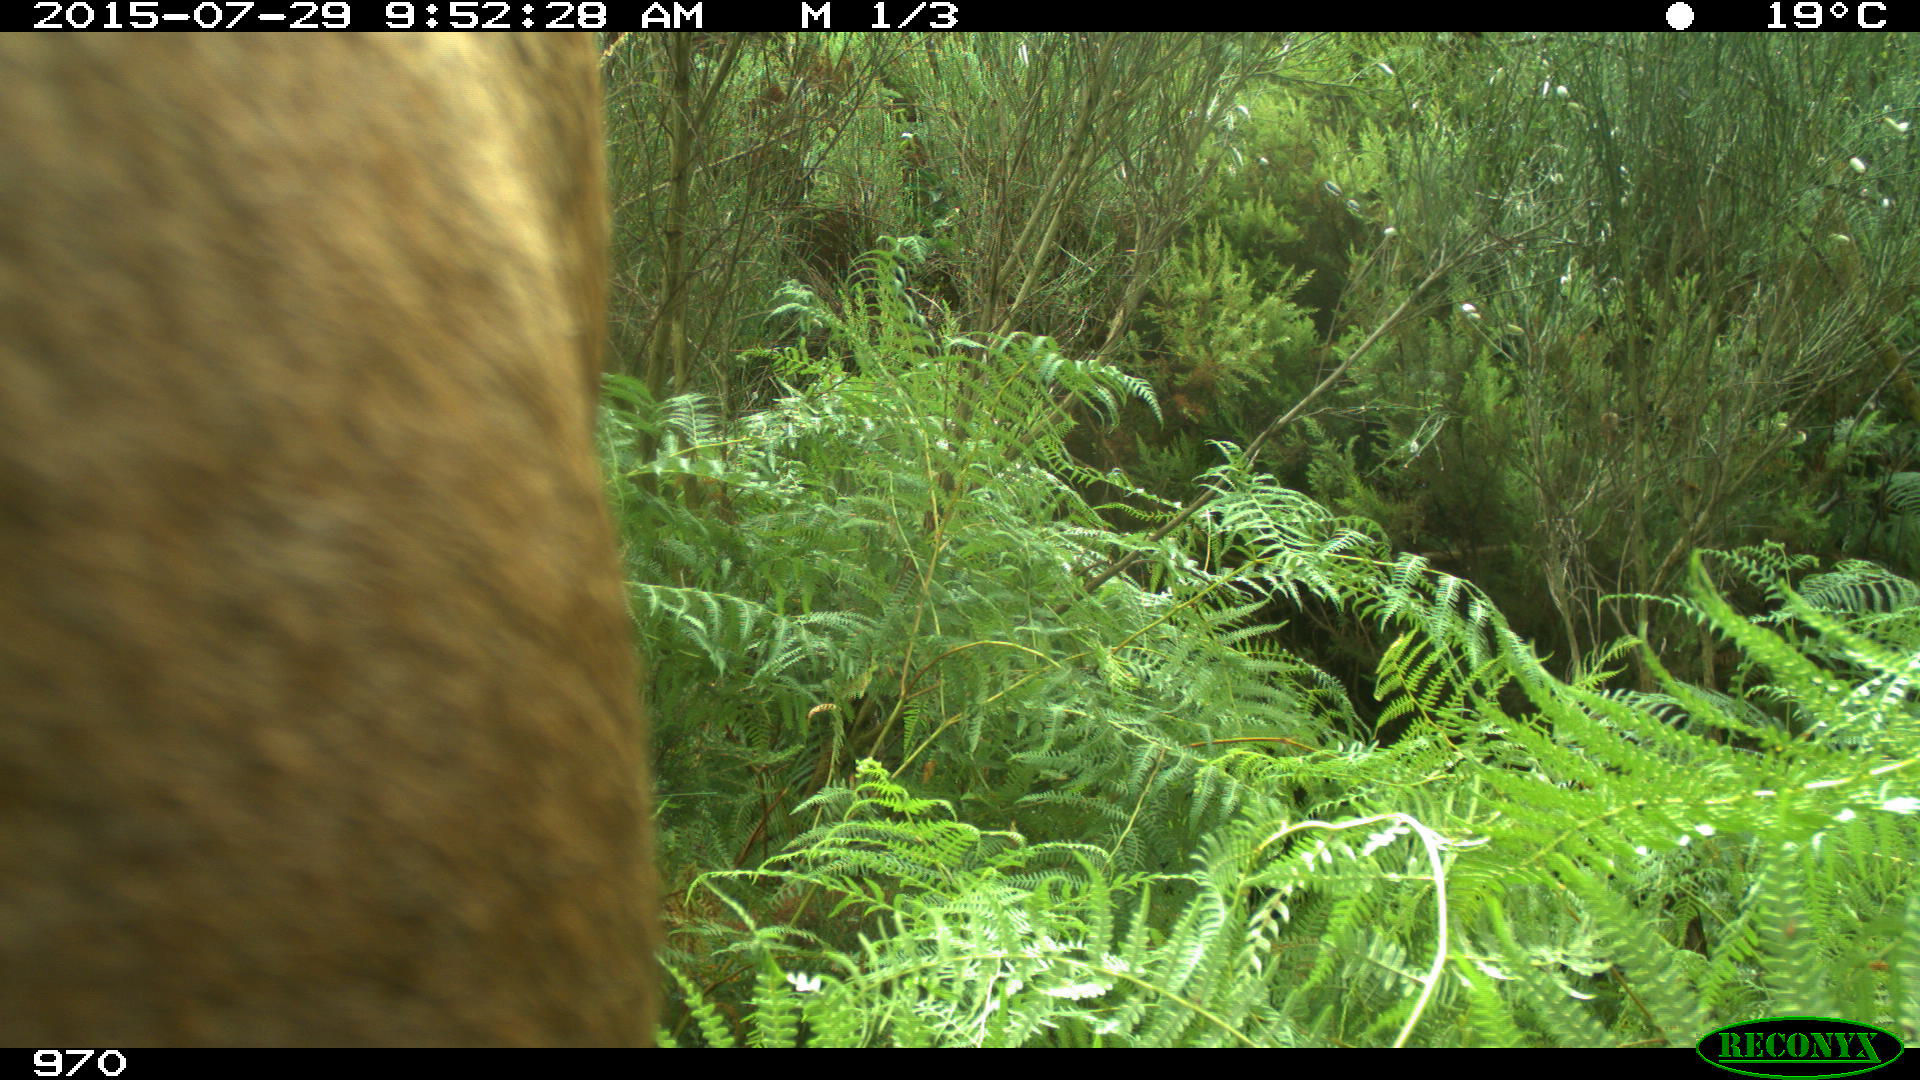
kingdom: Animalia
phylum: Chordata
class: Mammalia
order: Artiodactyla
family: Bovidae
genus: Bos
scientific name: Bos taurus
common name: Domesticated cattle
